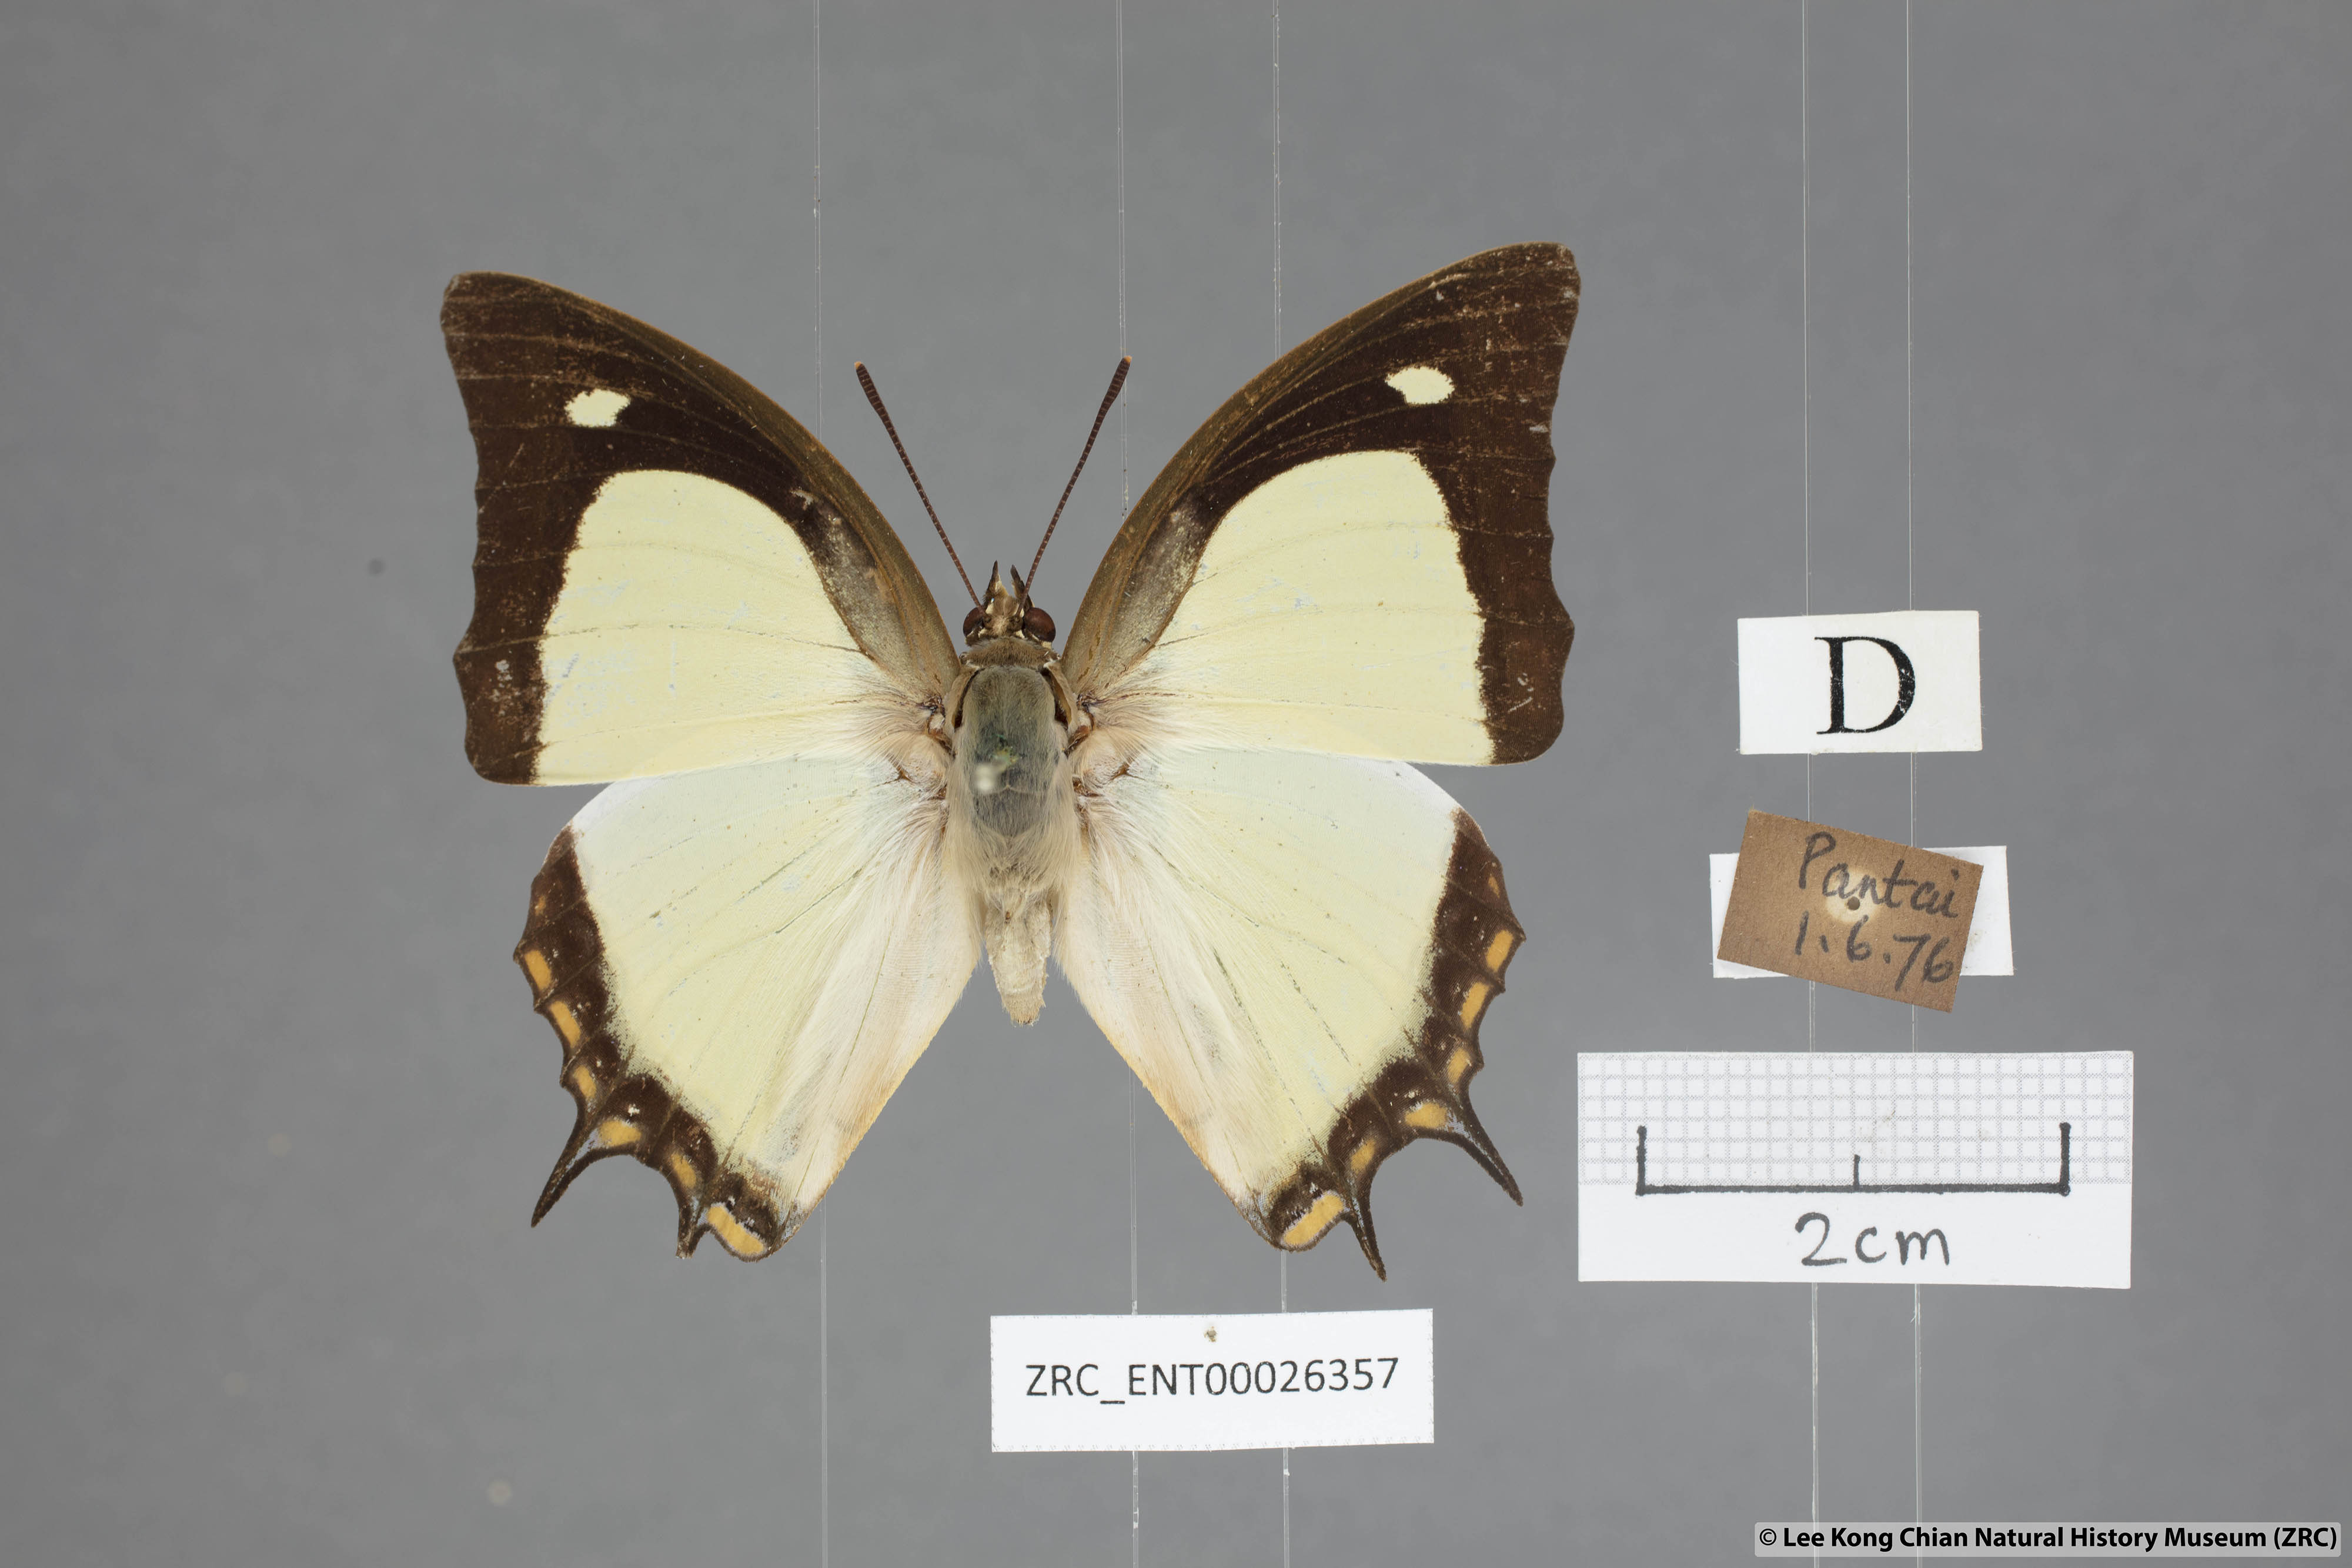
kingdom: Animalia
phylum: Arthropoda
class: Insecta
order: Lepidoptera
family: Nymphalidae
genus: Polyura
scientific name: Polyura jalysus
